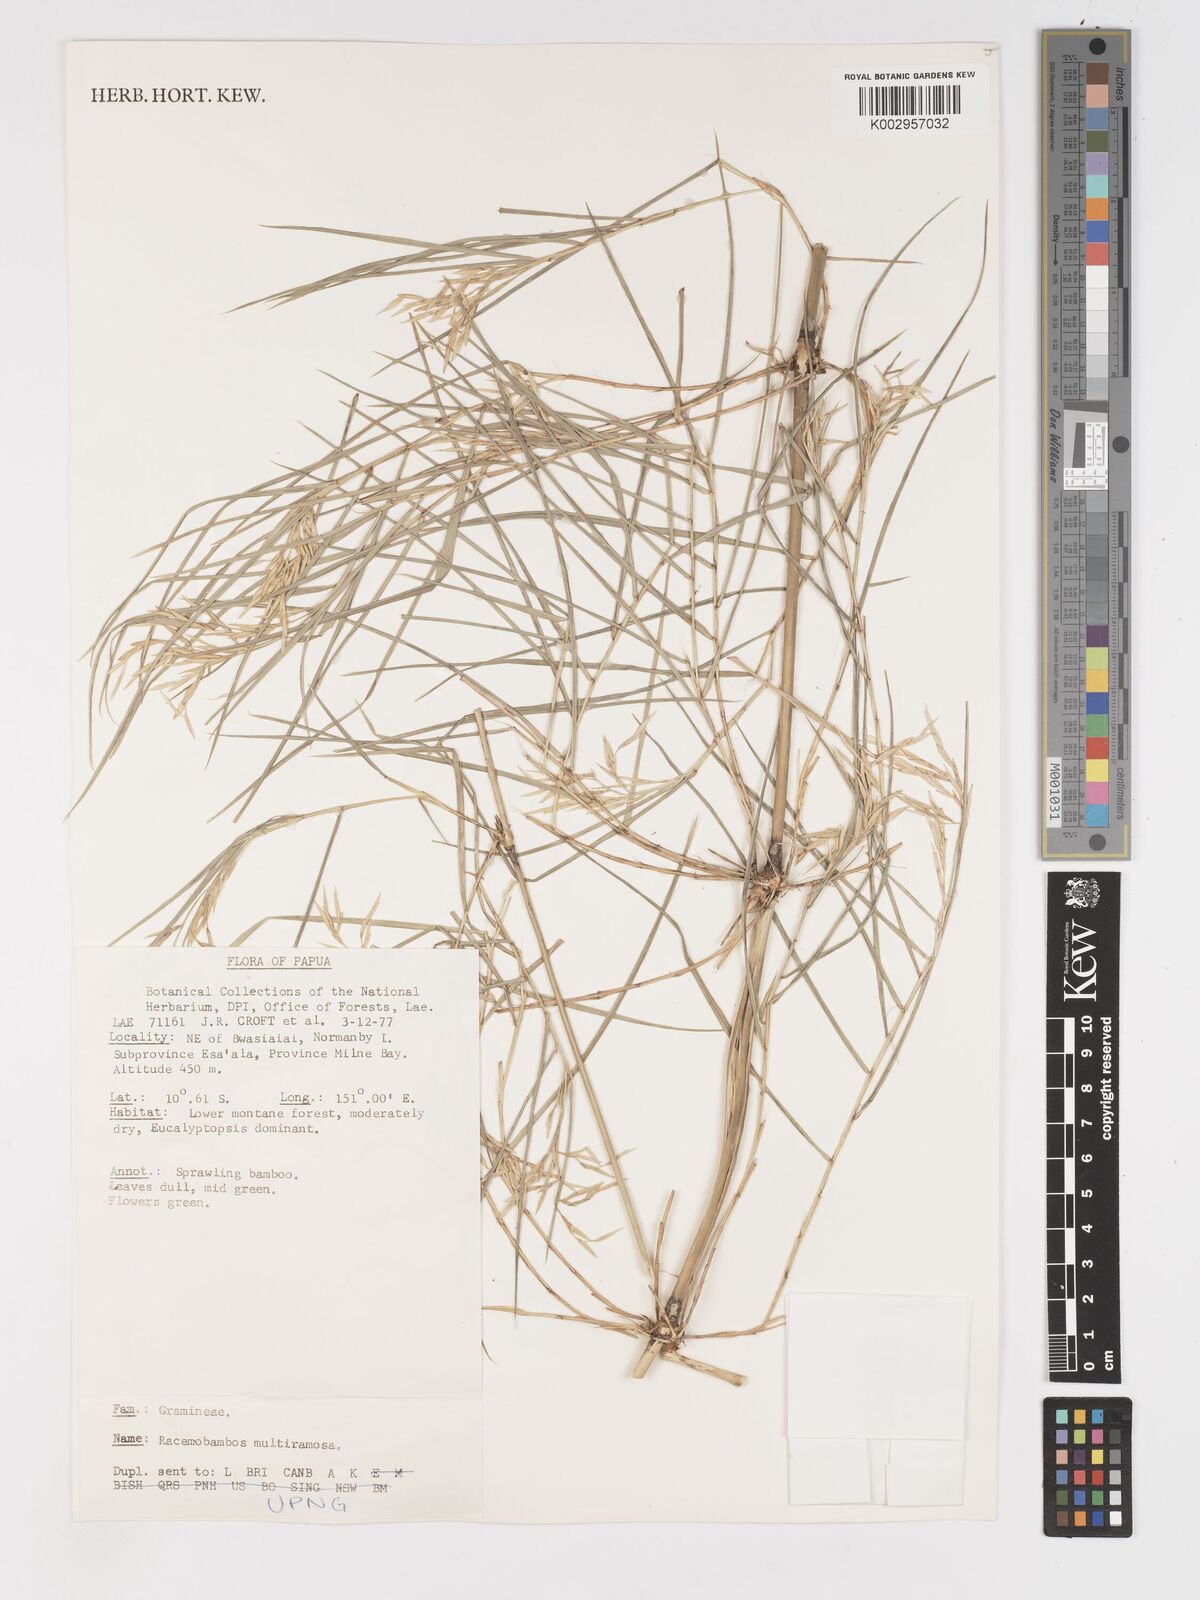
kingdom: Plantae
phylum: Tracheophyta
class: Liliopsida
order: Poales
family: Poaceae
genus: Racemobambos
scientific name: Racemobambos multiramosa
